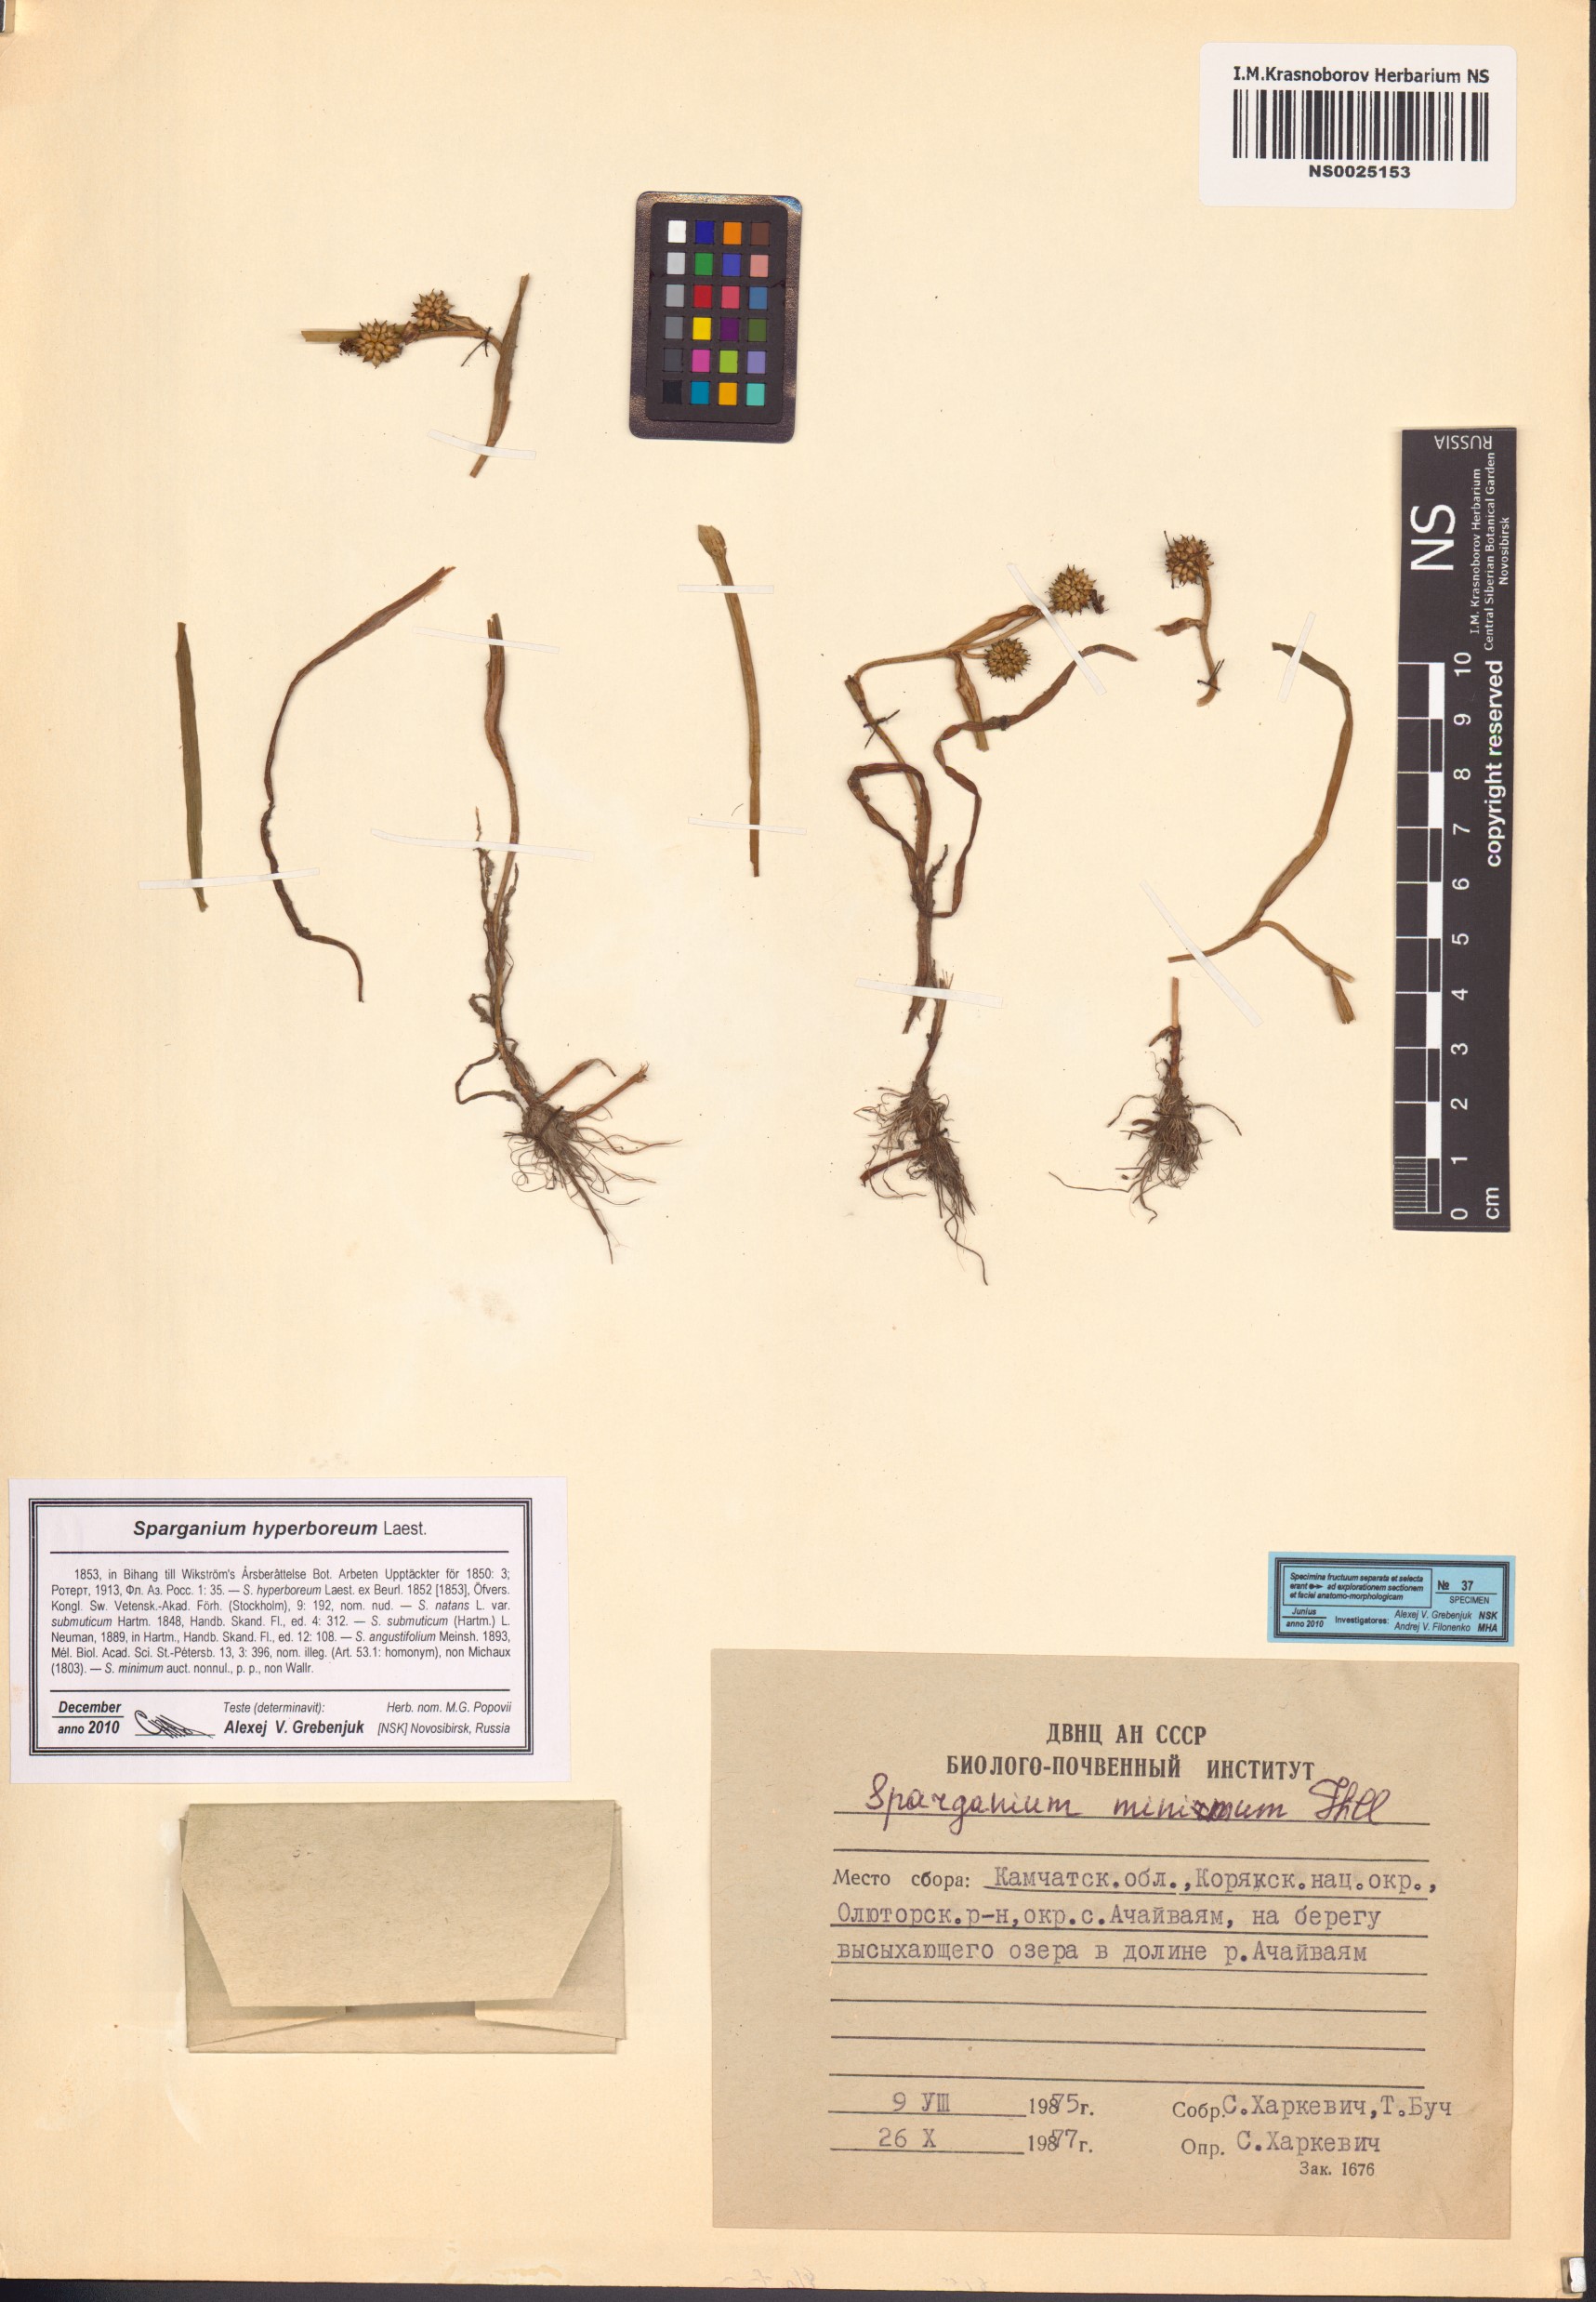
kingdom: Plantae
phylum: Tracheophyta
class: Liliopsida
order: Poales
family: Typhaceae
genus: Sparganium
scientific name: Sparganium hyperboreum
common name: Arctic burreed
